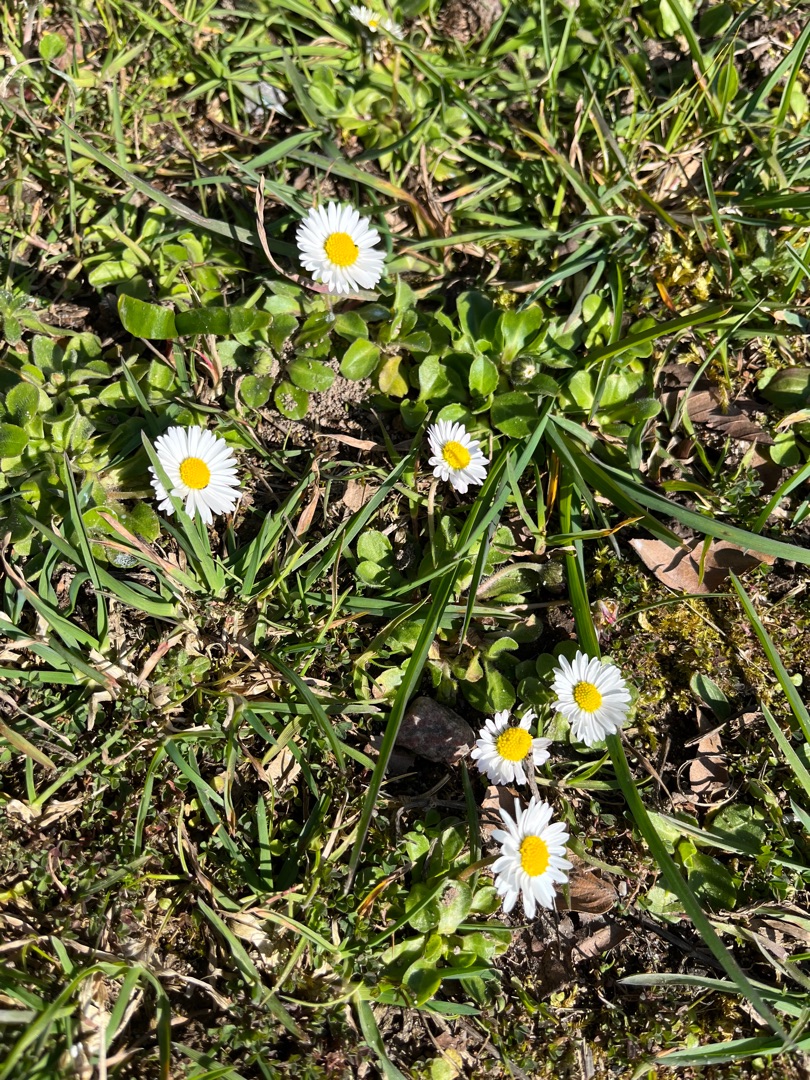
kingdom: Plantae
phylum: Tracheophyta
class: Magnoliopsida
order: Asterales
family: Asteraceae
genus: Bellis
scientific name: Bellis perennis
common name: Tusindfryd
